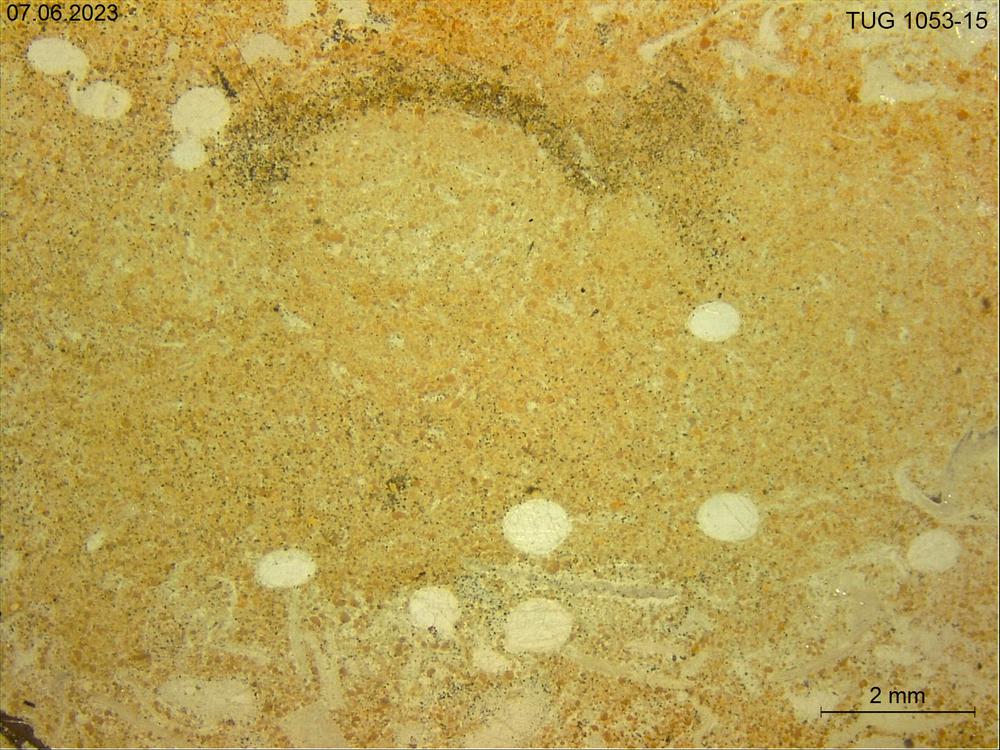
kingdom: Animalia
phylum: Porifera
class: Hexactinellida
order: Lyssacinosida
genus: Pyritonema
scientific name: Pyritonema
